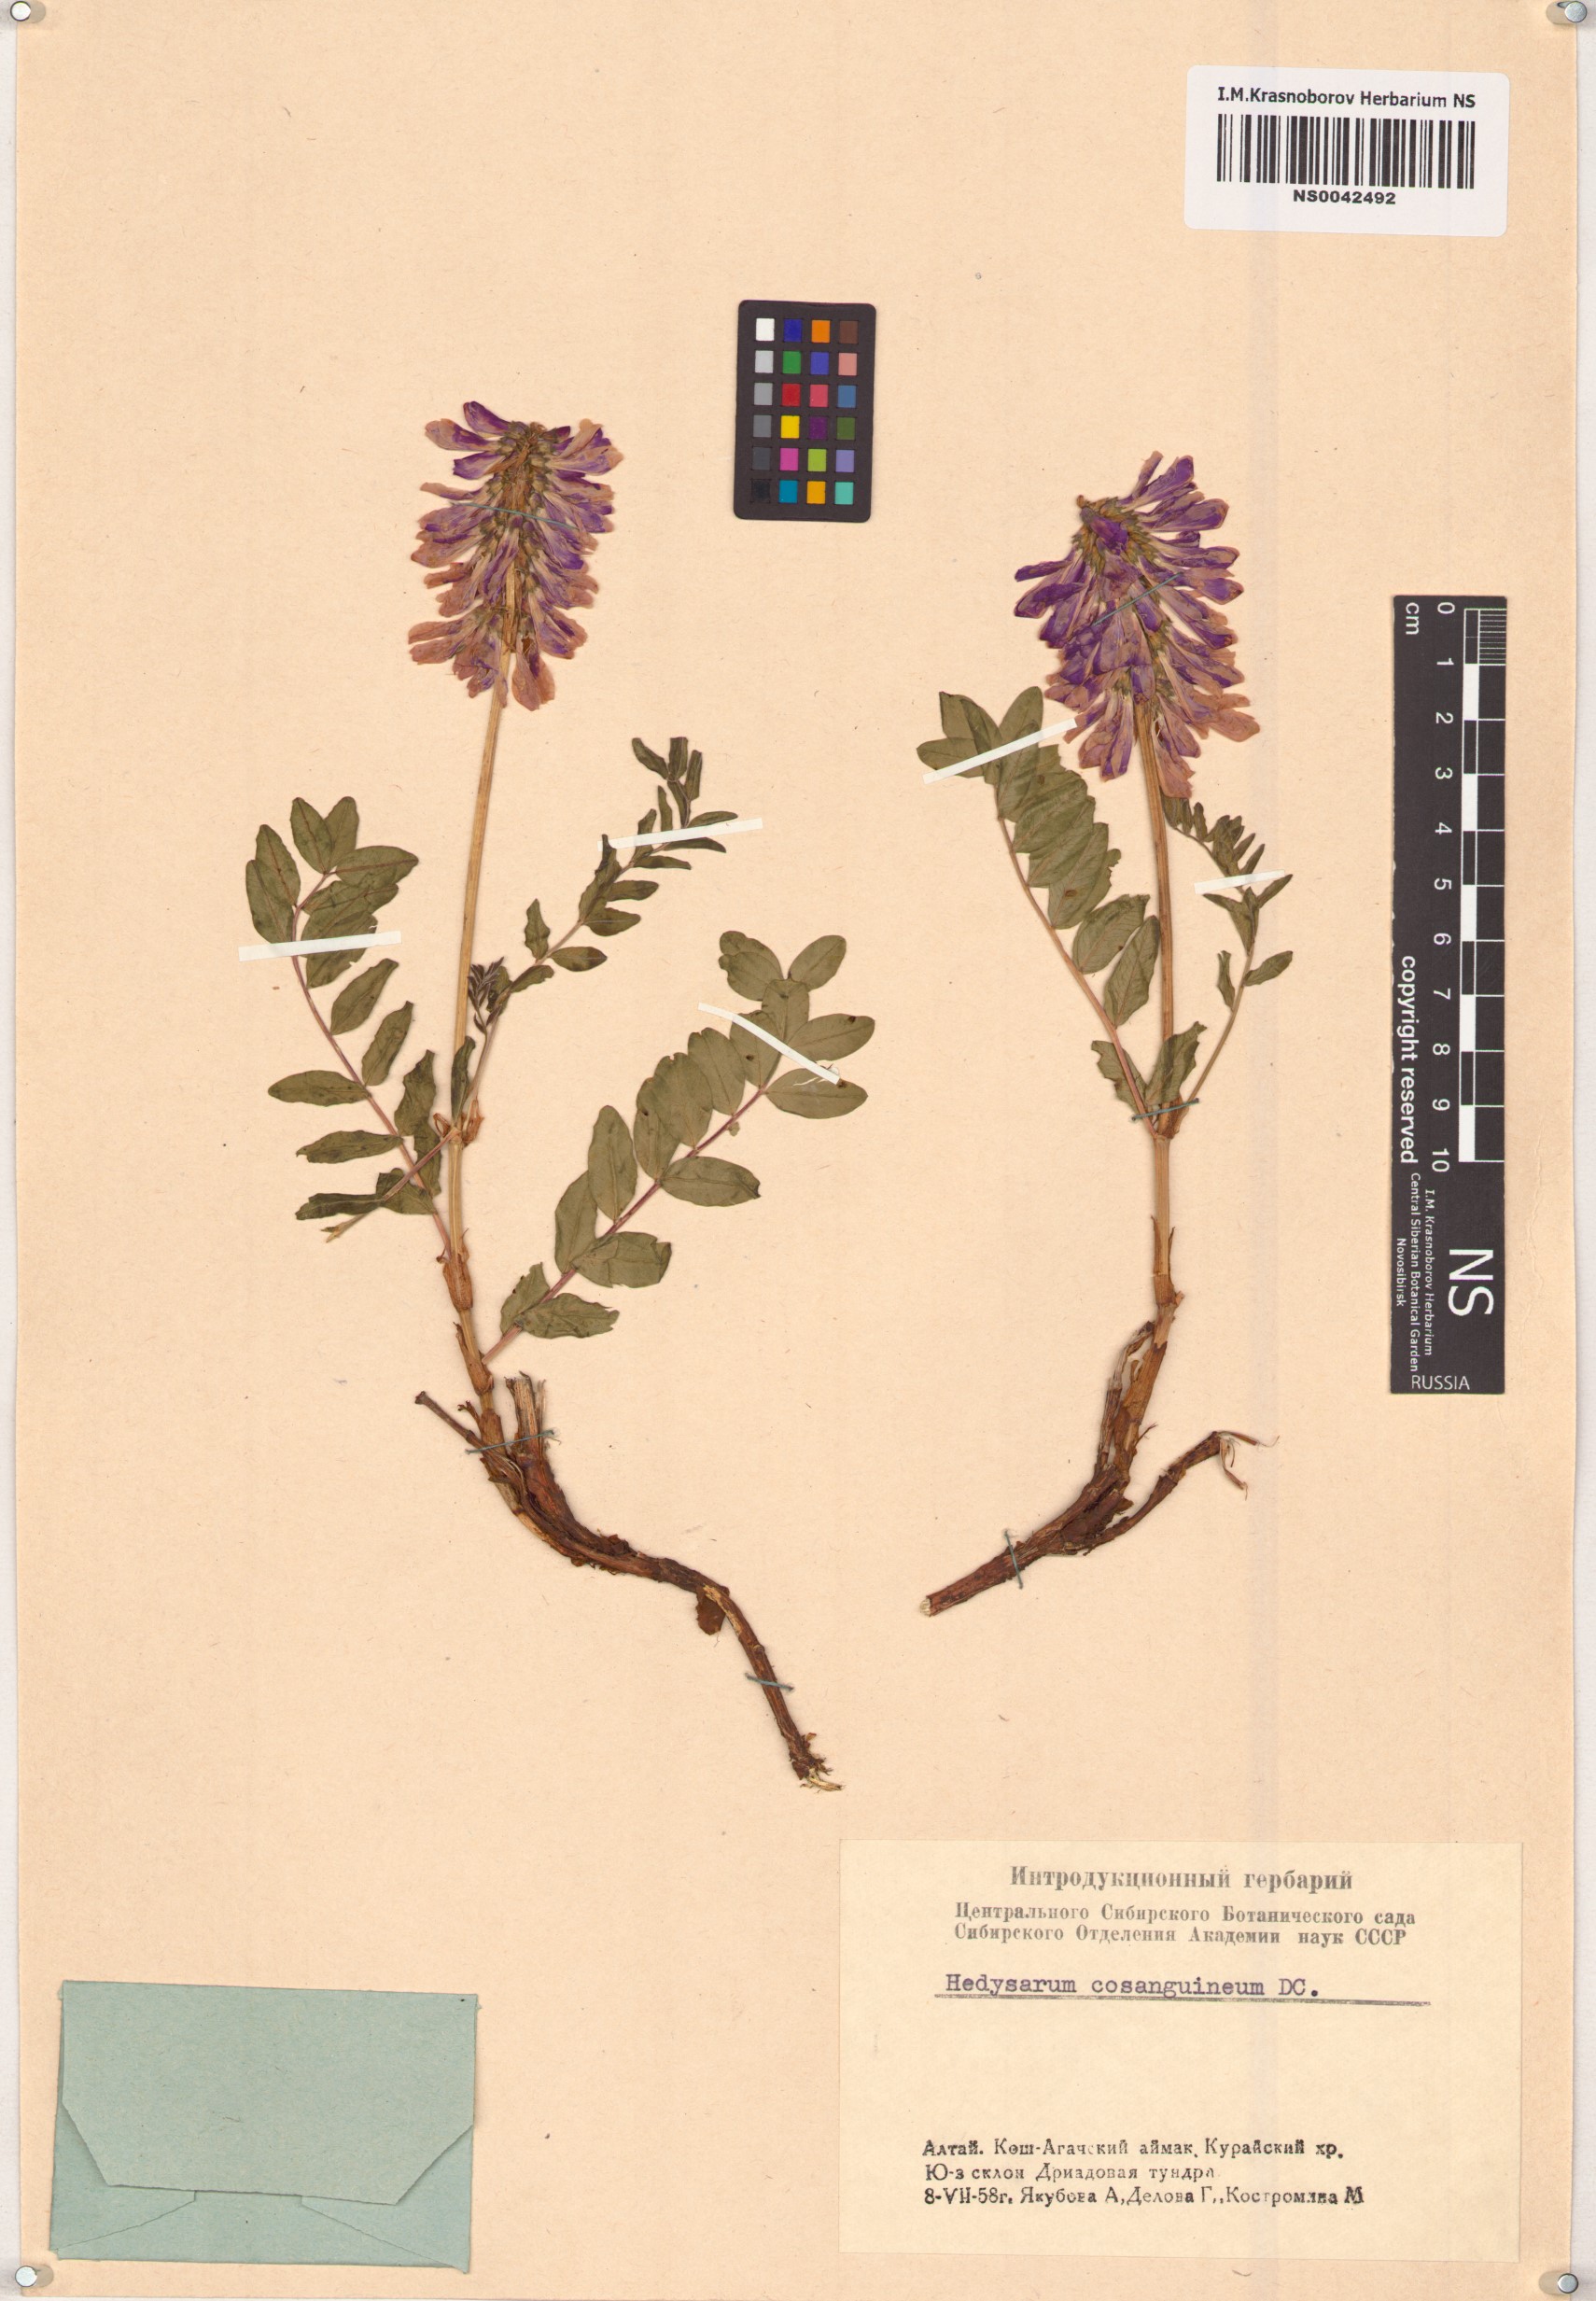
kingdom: Plantae
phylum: Tracheophyta
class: Magnoliopsida
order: Fabales
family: Fabaceae
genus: Hedysarum
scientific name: Hedysarum consanguineum
